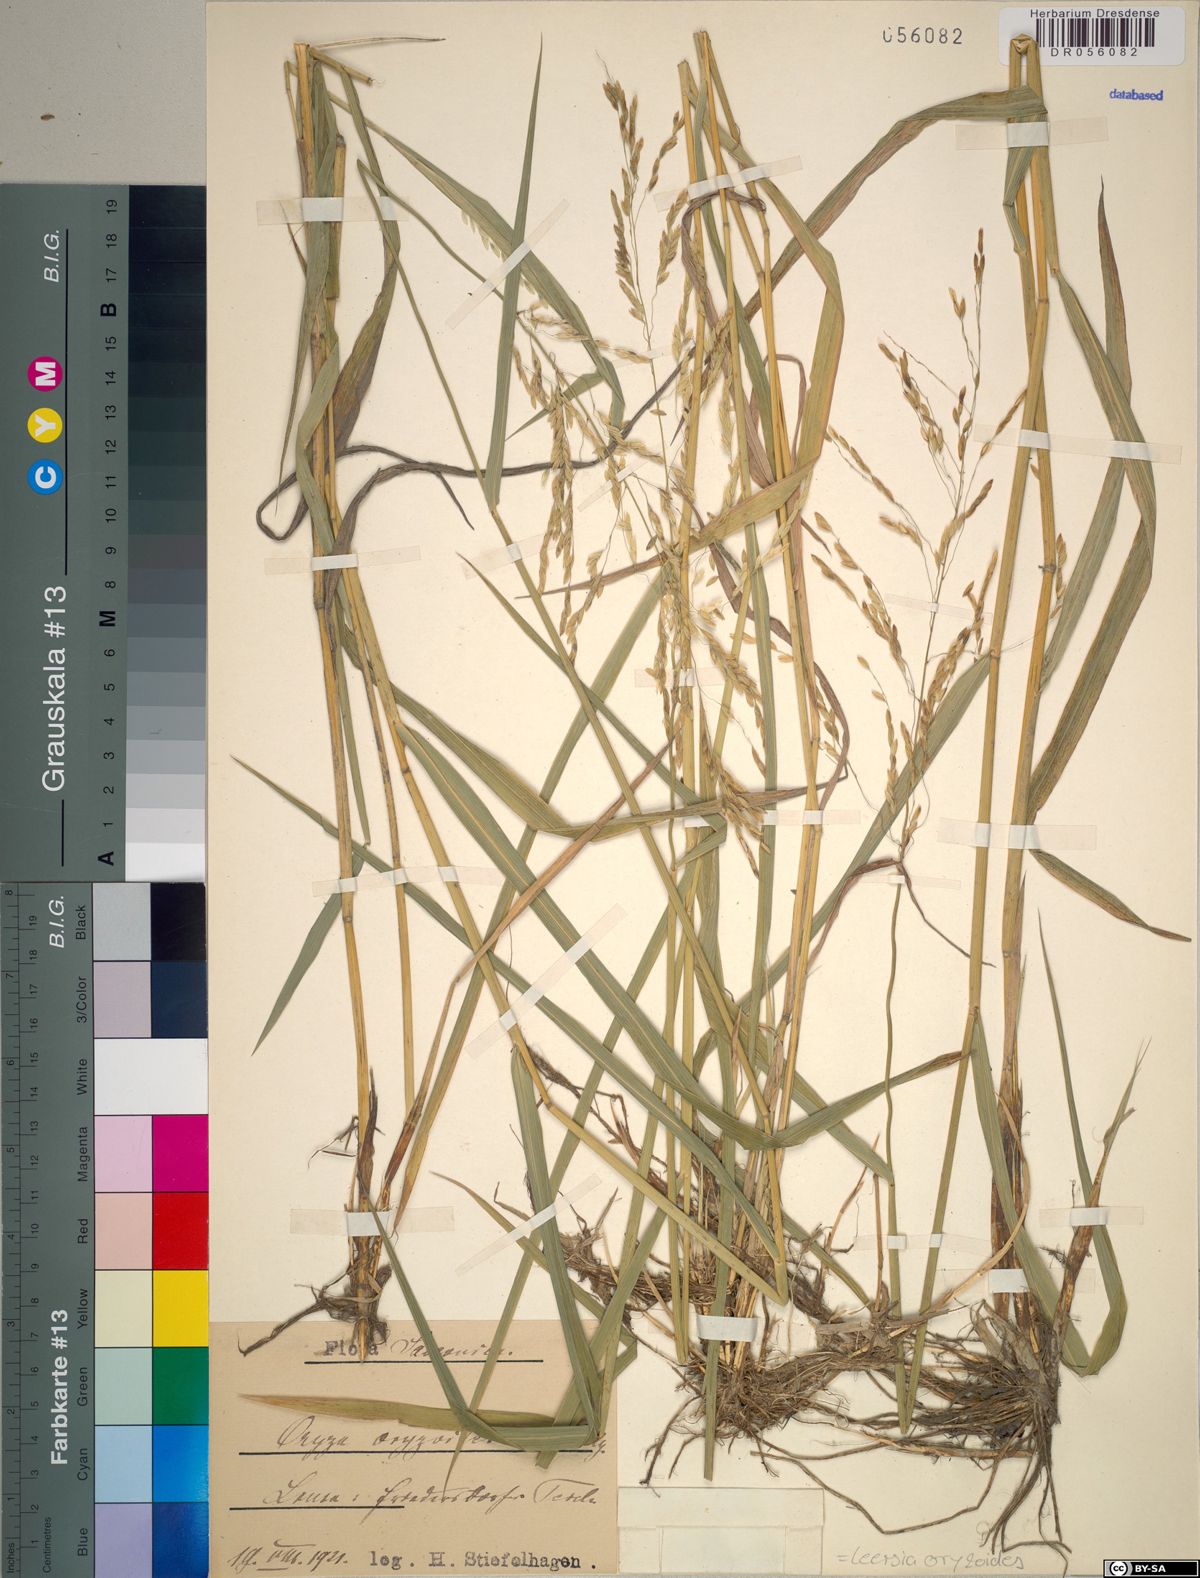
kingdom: Plantae
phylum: Tracheophyta
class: Liliopsida
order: Poales
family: Poaceae
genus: Leersia
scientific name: Leersia oryzoides
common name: Cut-grass
